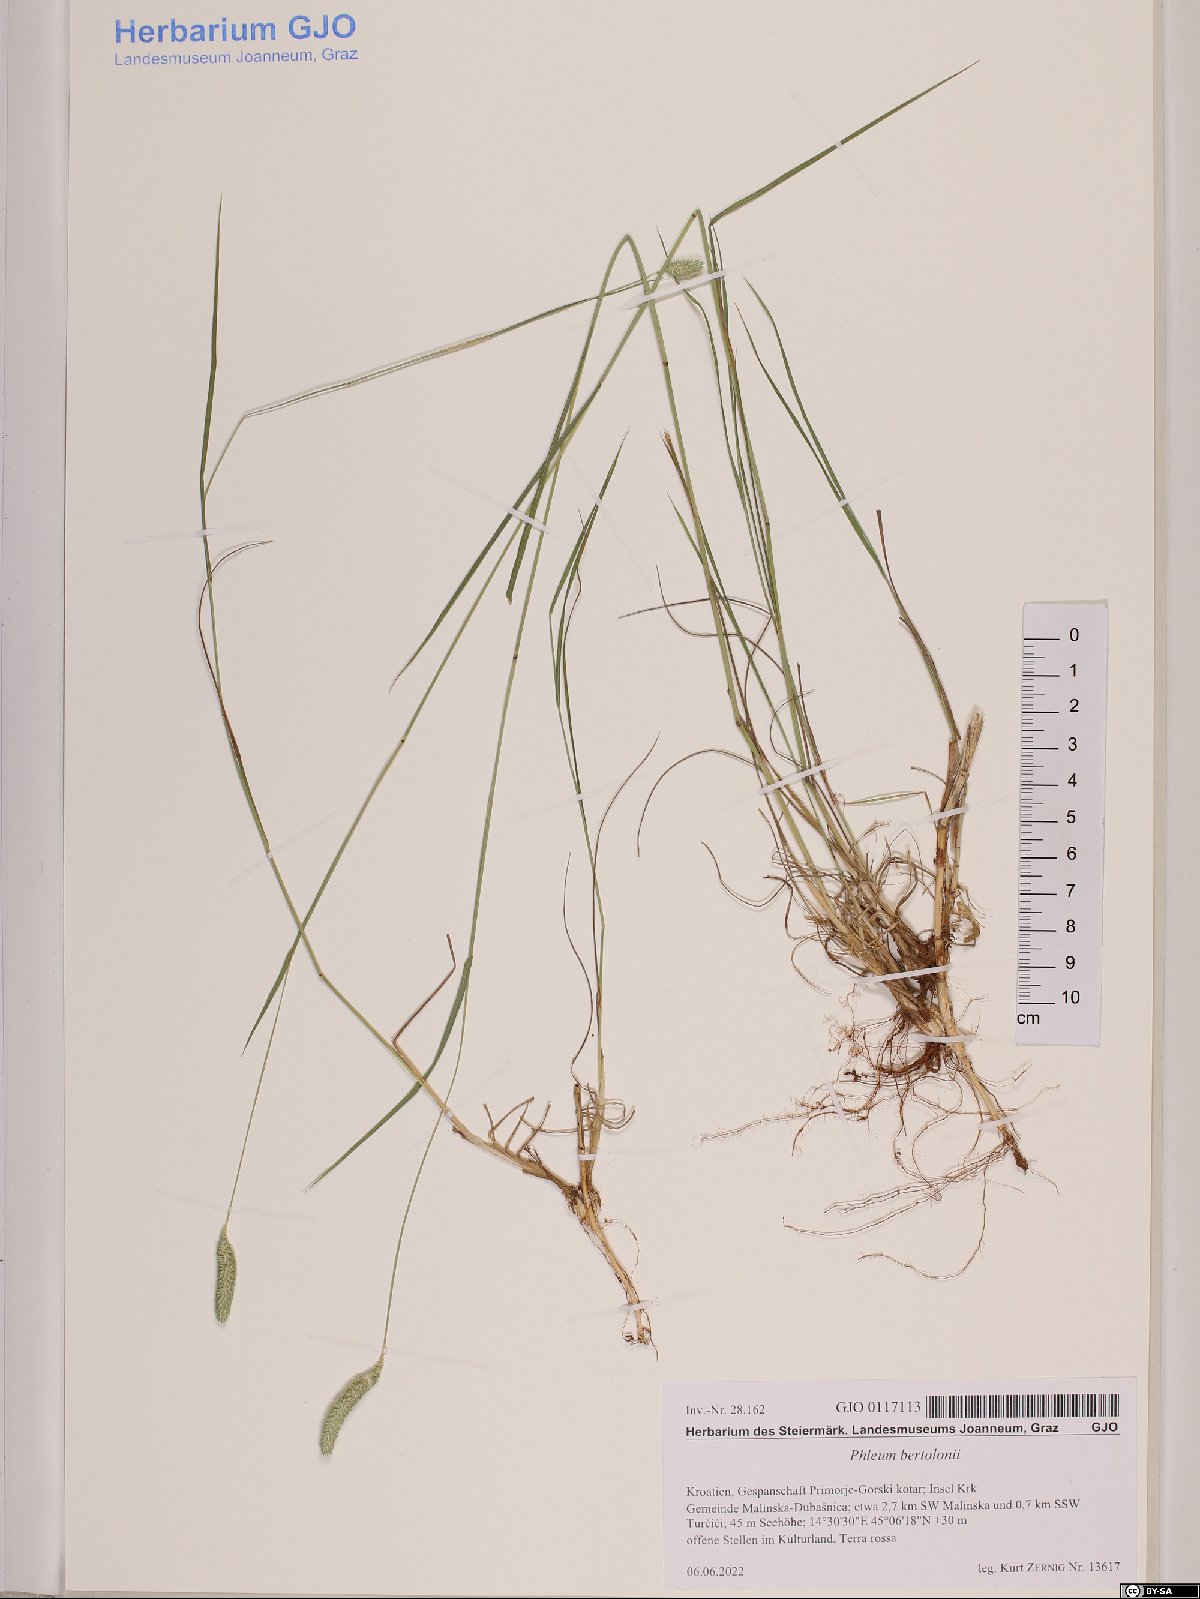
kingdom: Plantae
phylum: Tracheophyta
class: Liliopsida
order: Poales
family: Poaceae
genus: Phleum
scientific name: Phleum bertolonii
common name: Smaller cat's-tail
